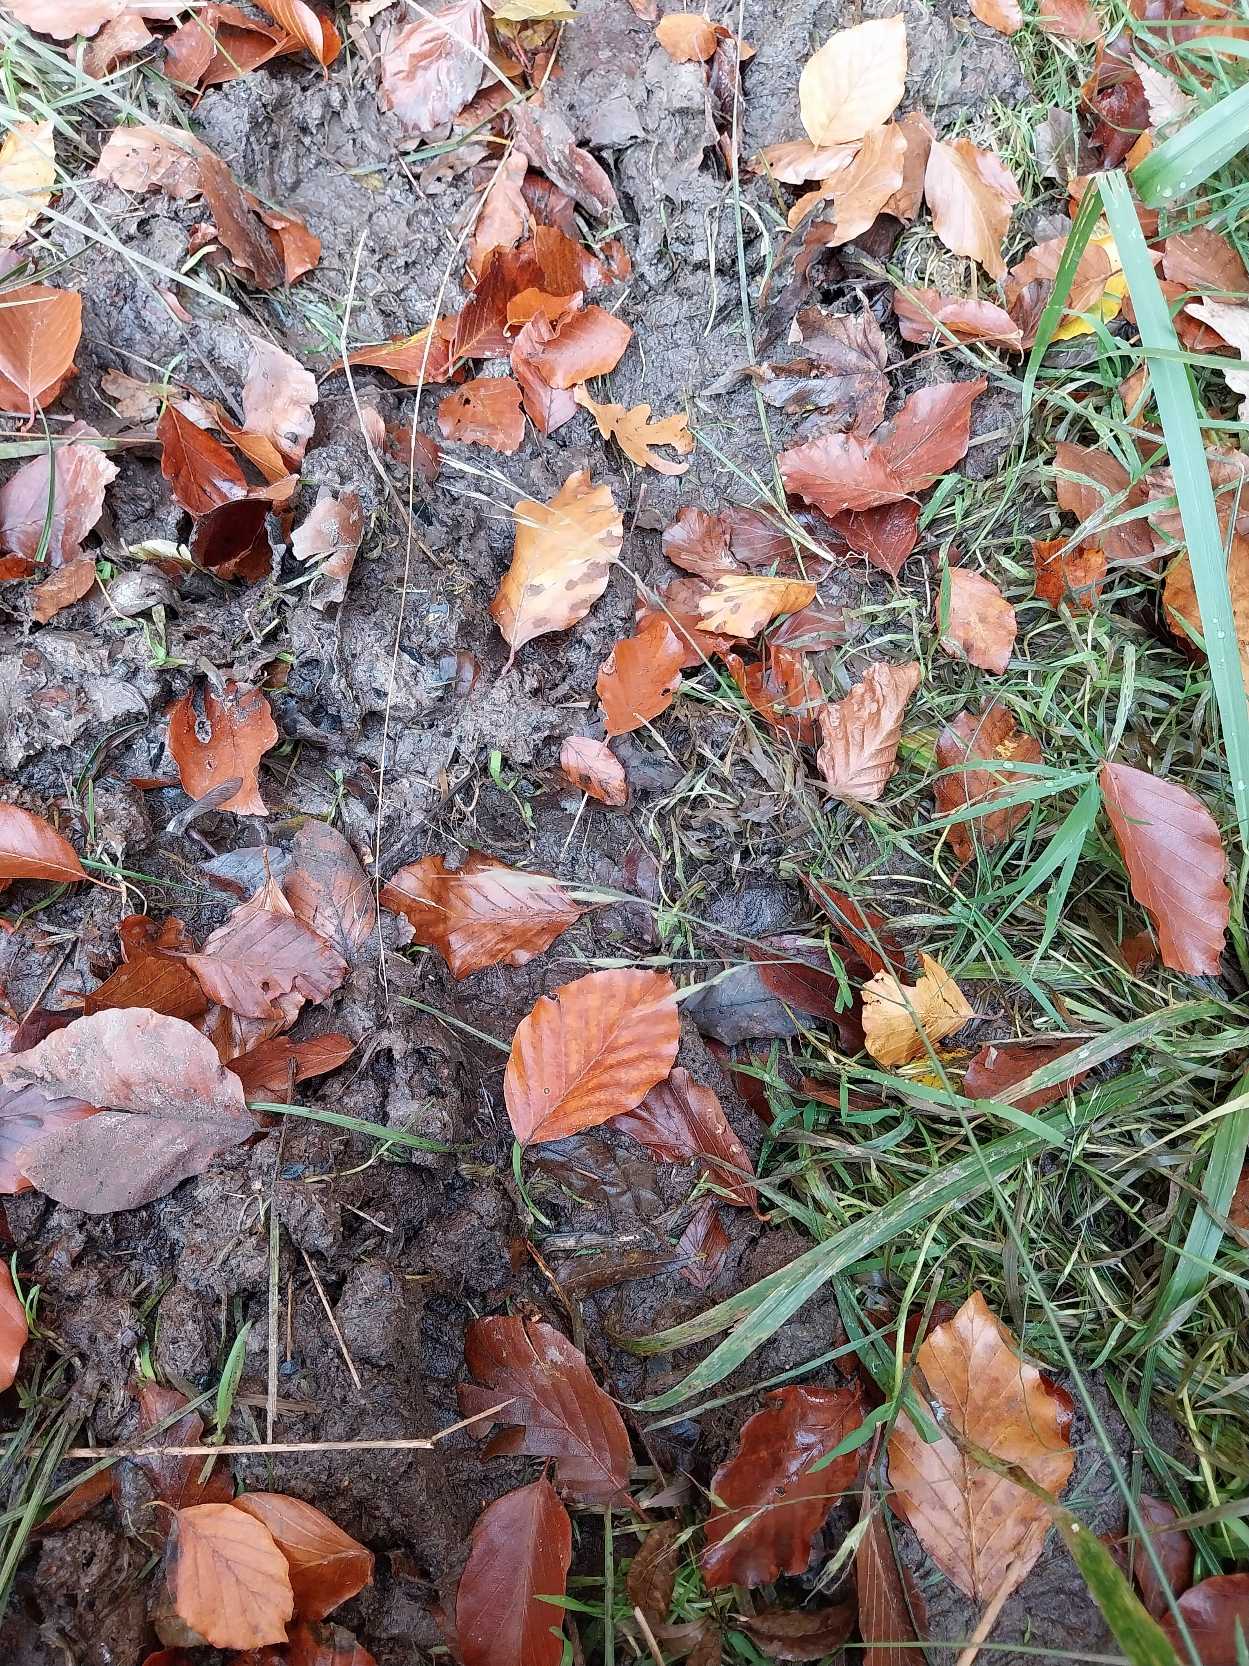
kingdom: Plantae
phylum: Tracheophyta
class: Liliopsida
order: Poales
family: Poaceae
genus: Lolium
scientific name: Lolium giganteum
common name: Kæmpe-svingel
